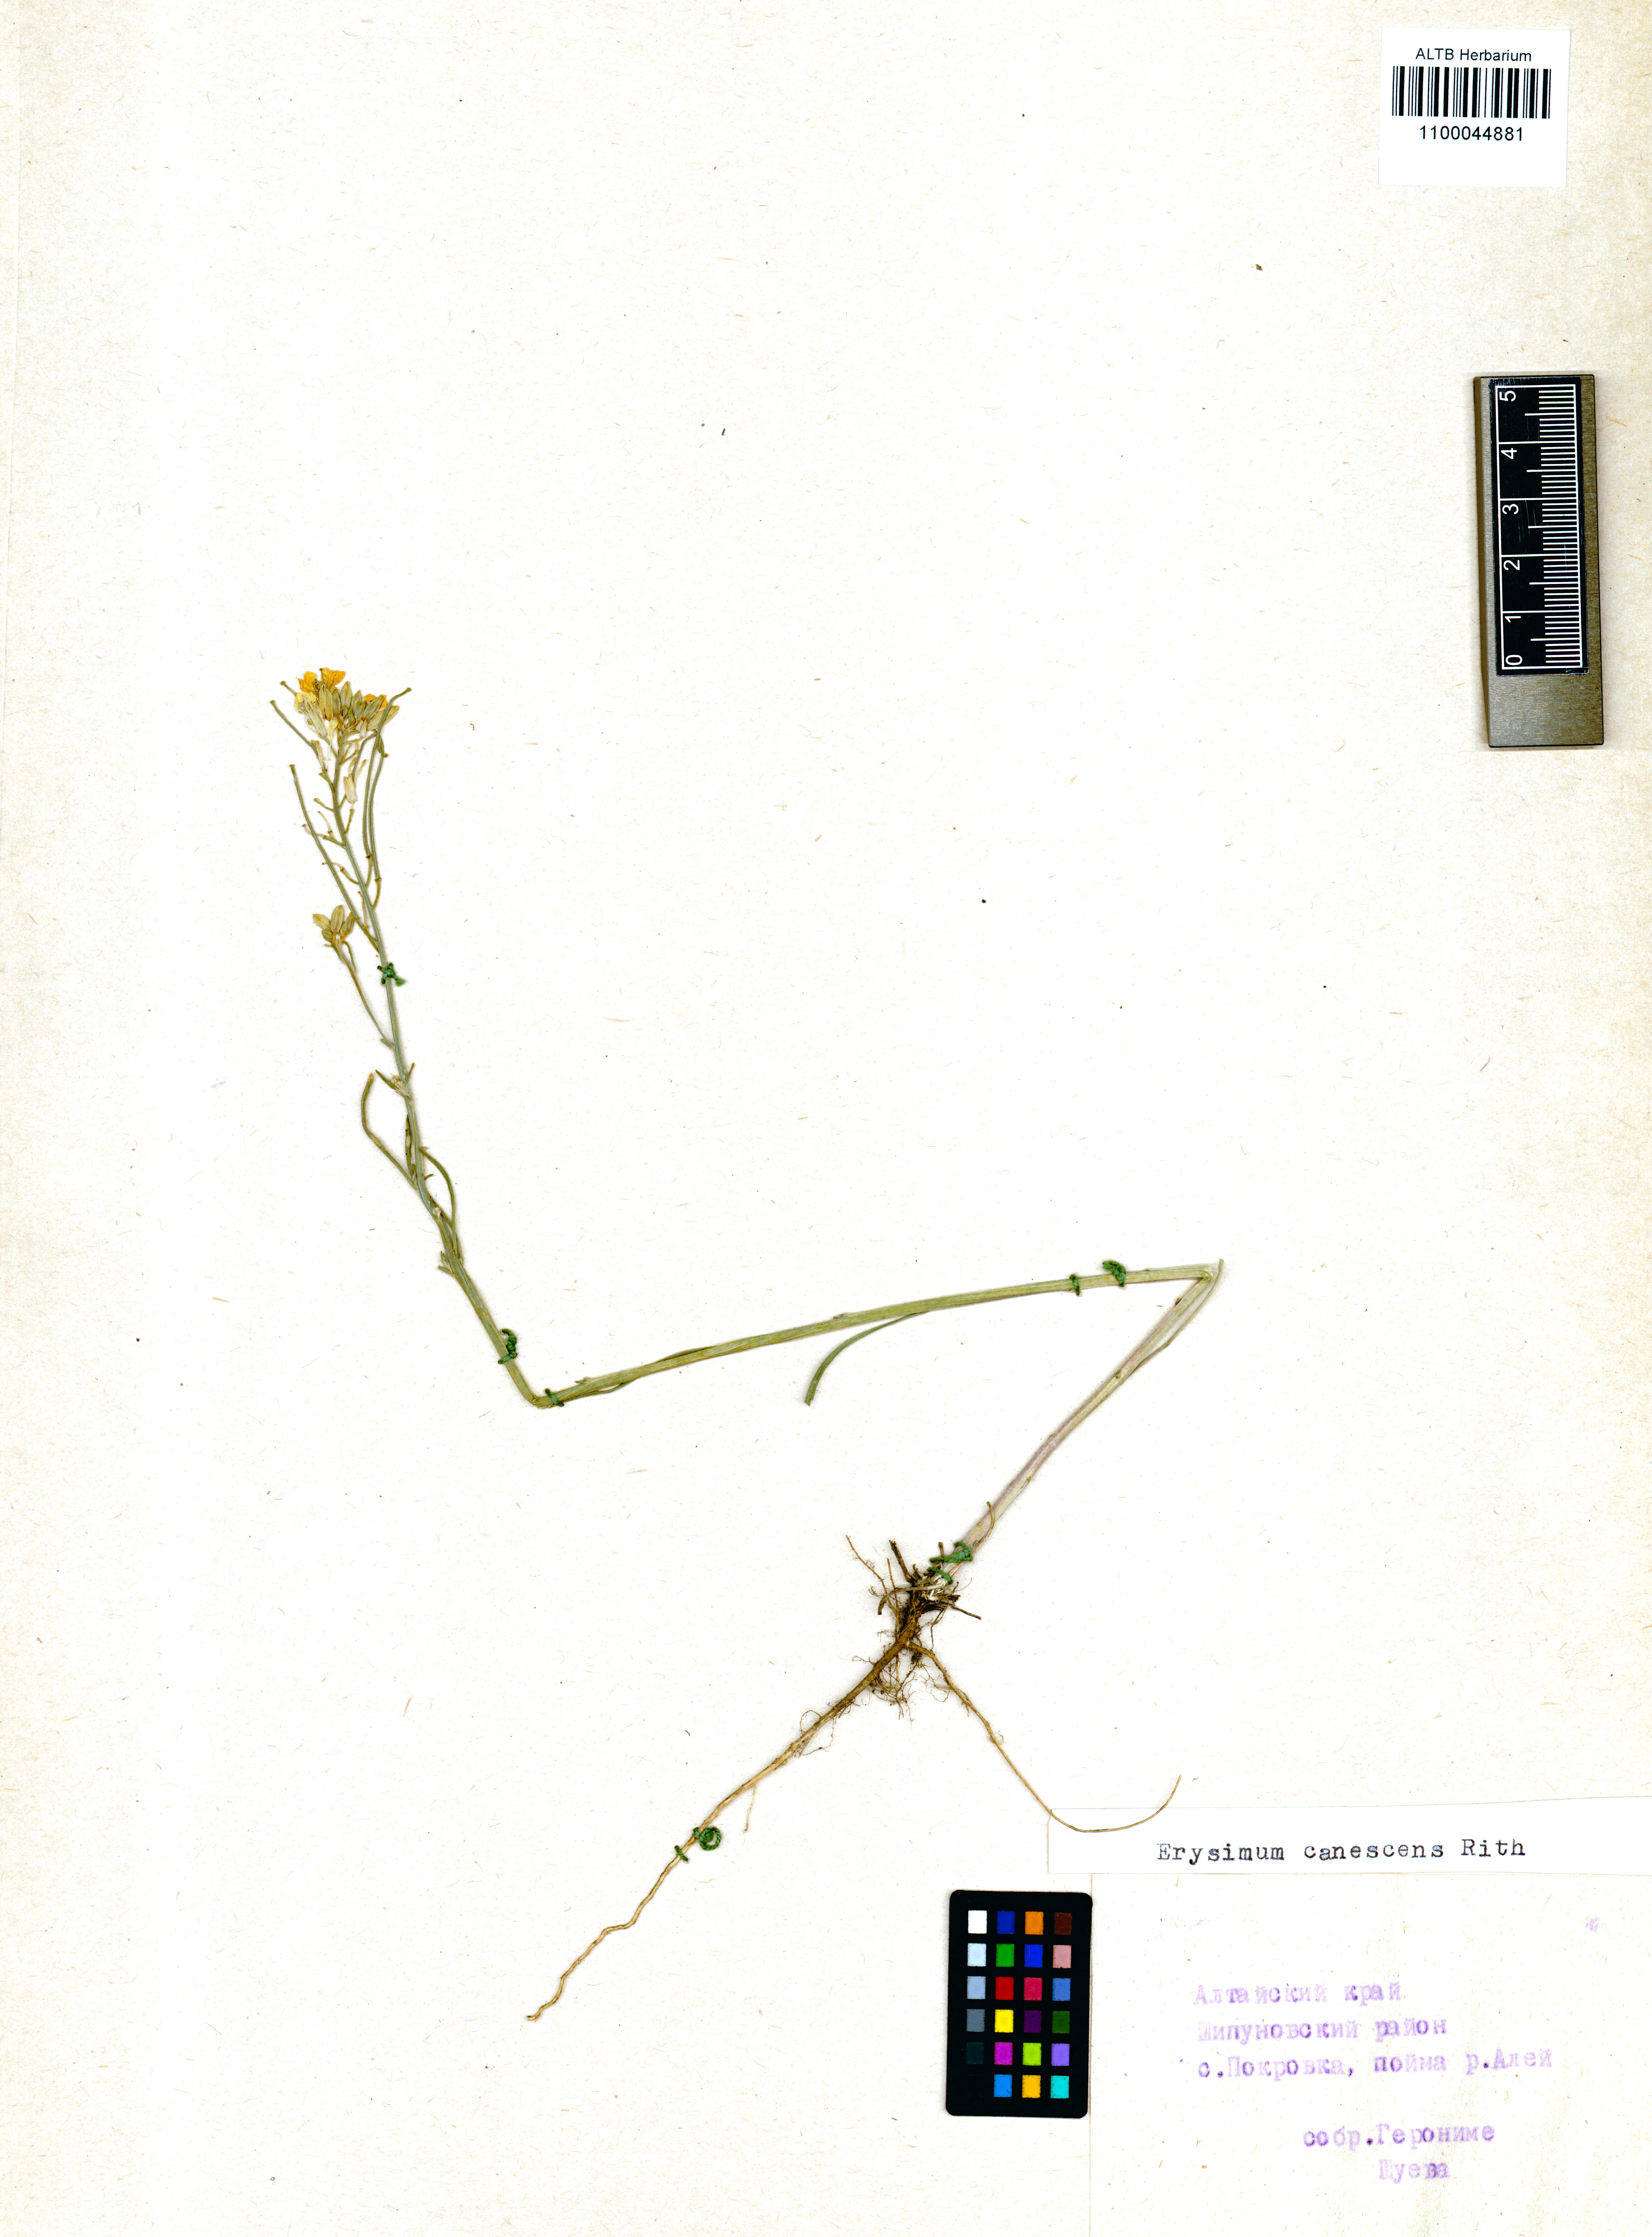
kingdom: Plantae
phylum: Tracheophyta
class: Magnoliopsida
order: Brassicales
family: Brassicaceae
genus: Erysimum
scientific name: Erysimum canescens
